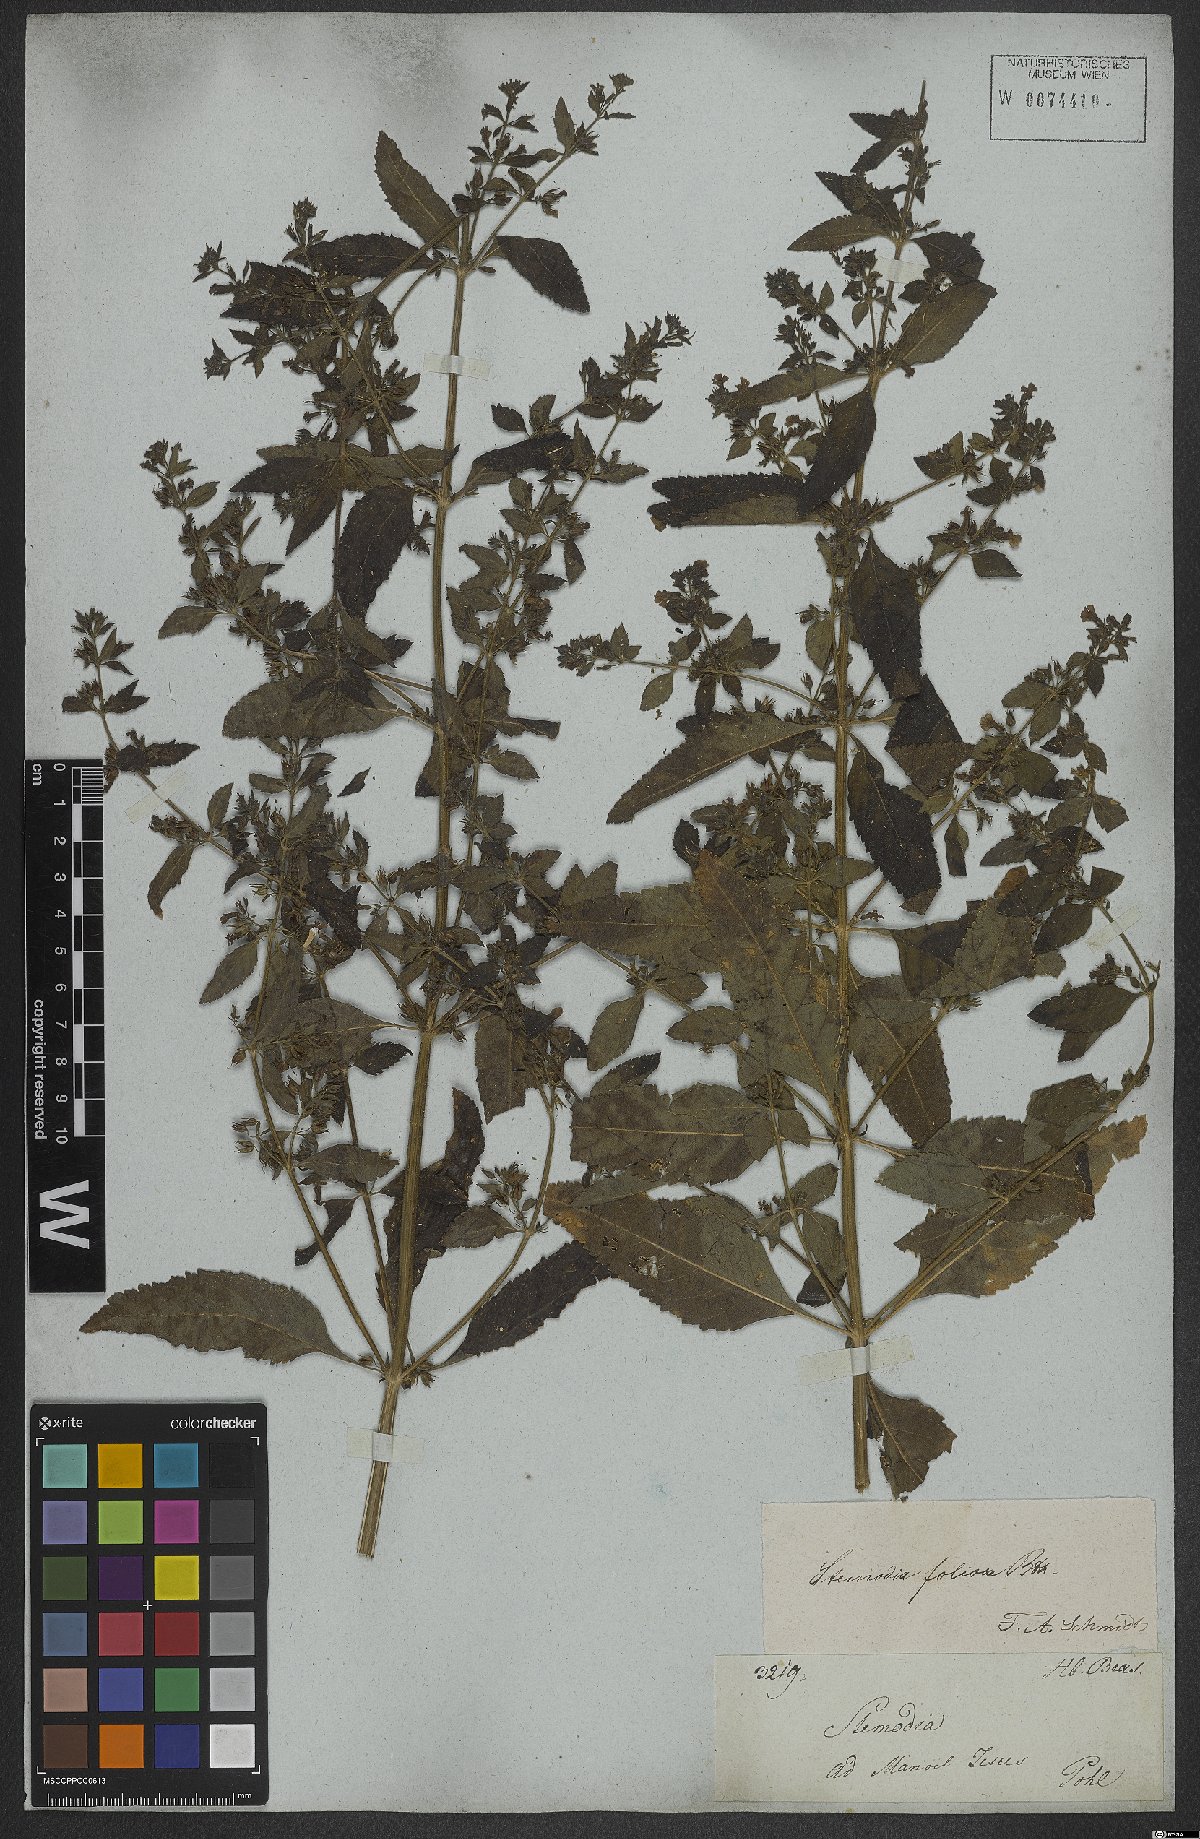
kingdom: Plantae
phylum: Tracheophyta
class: Magnoliopsida
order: Lamiales
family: Plantaginaceae
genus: Stemodia
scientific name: Stemodia foliosa
